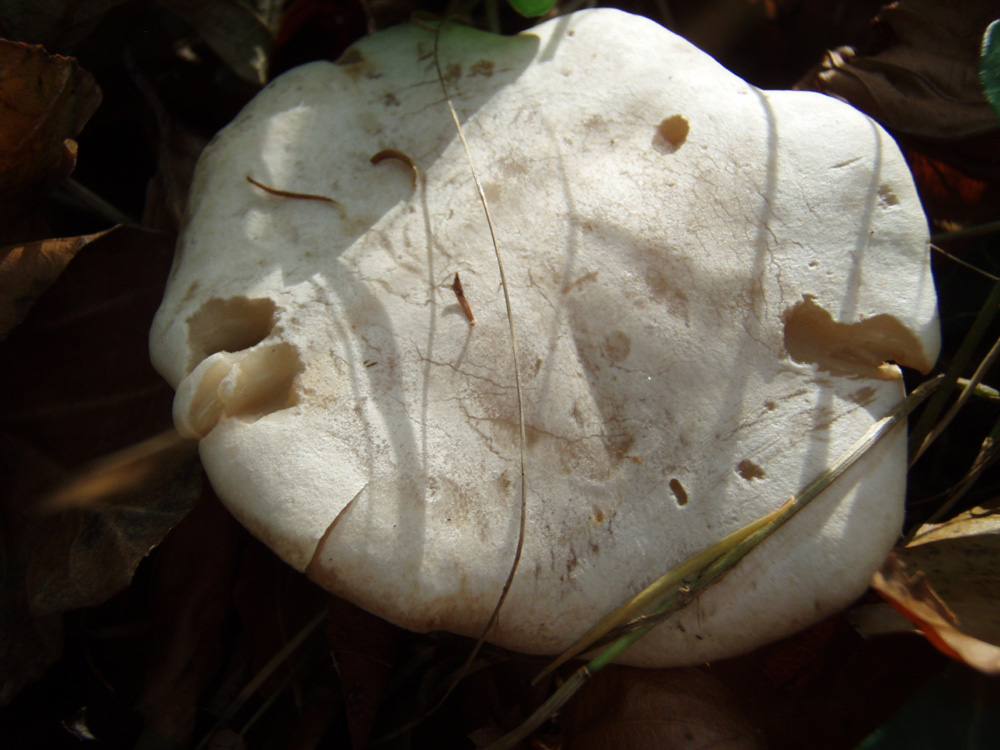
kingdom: Fungi
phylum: Basidiomycota
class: Agaricomycetes
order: Agaricales
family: Tricholomataceae
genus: Clitocybe
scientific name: Clitocybe phyllophila
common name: løv-tragthat
